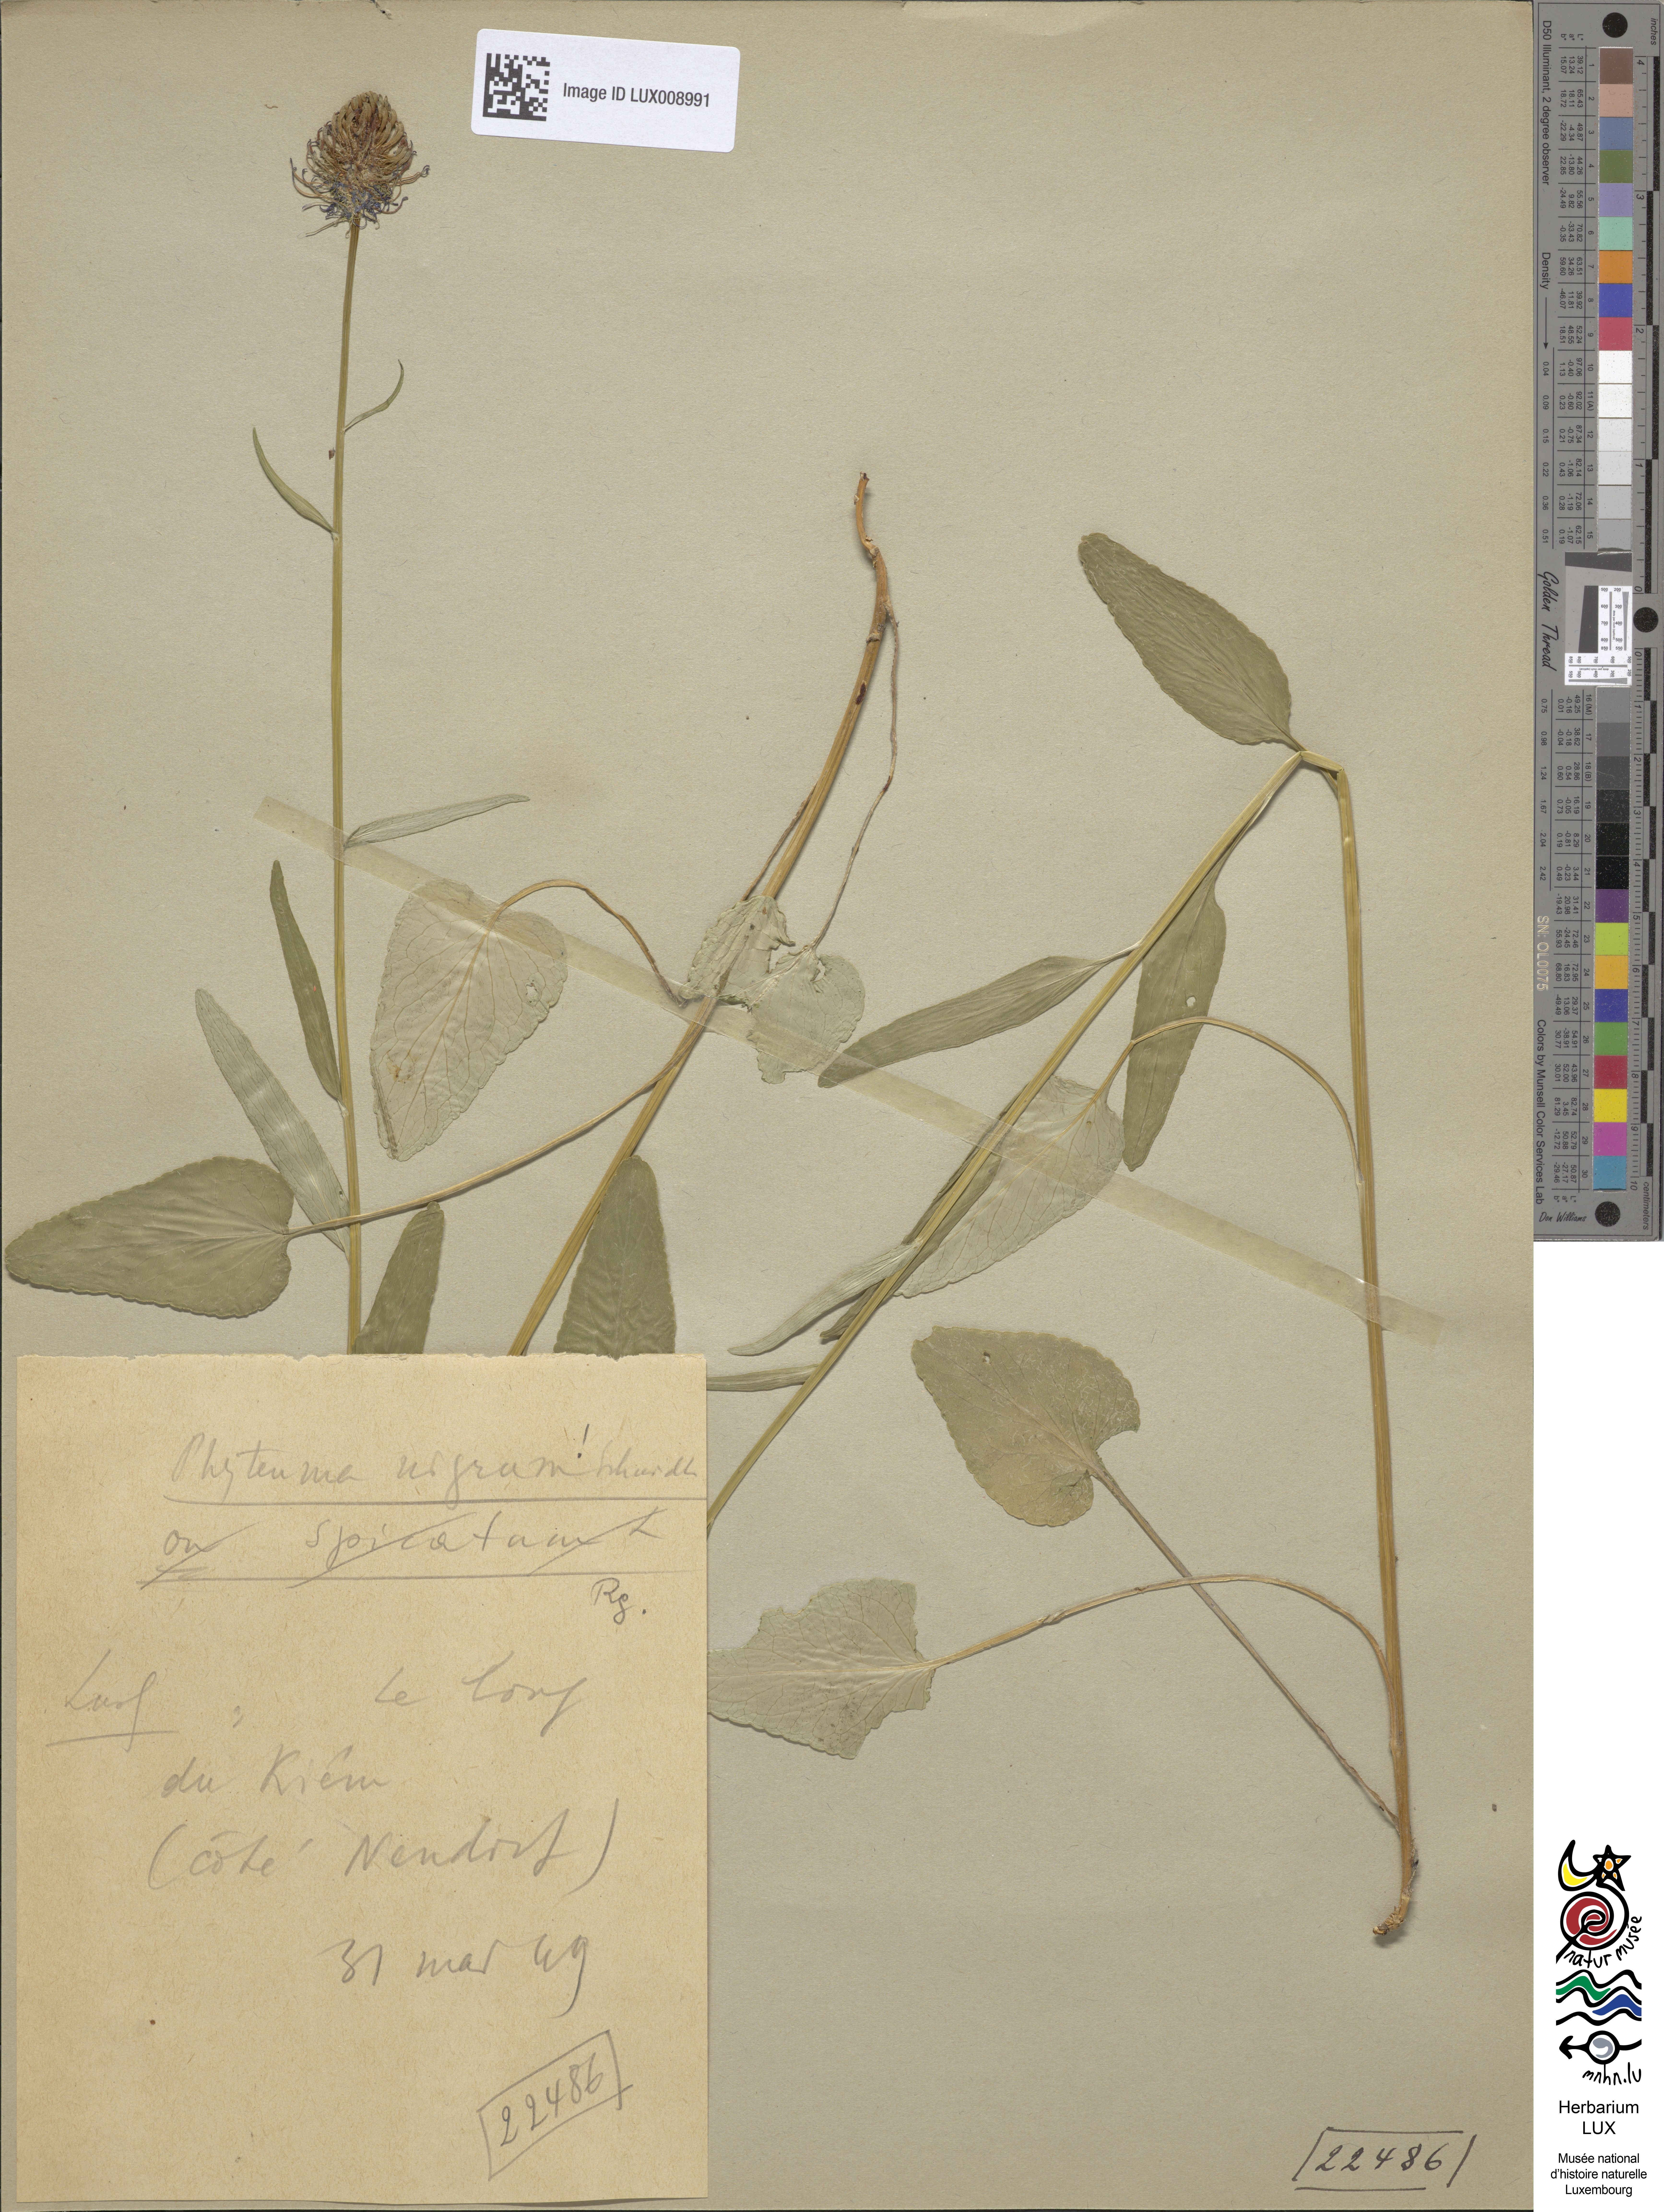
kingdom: Plantae
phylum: Tracheophyta
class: Magnoliopsida
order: Asterales
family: Campanulaceae
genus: Phyteuma
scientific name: Phyteuma nigrum
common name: Black rampion
